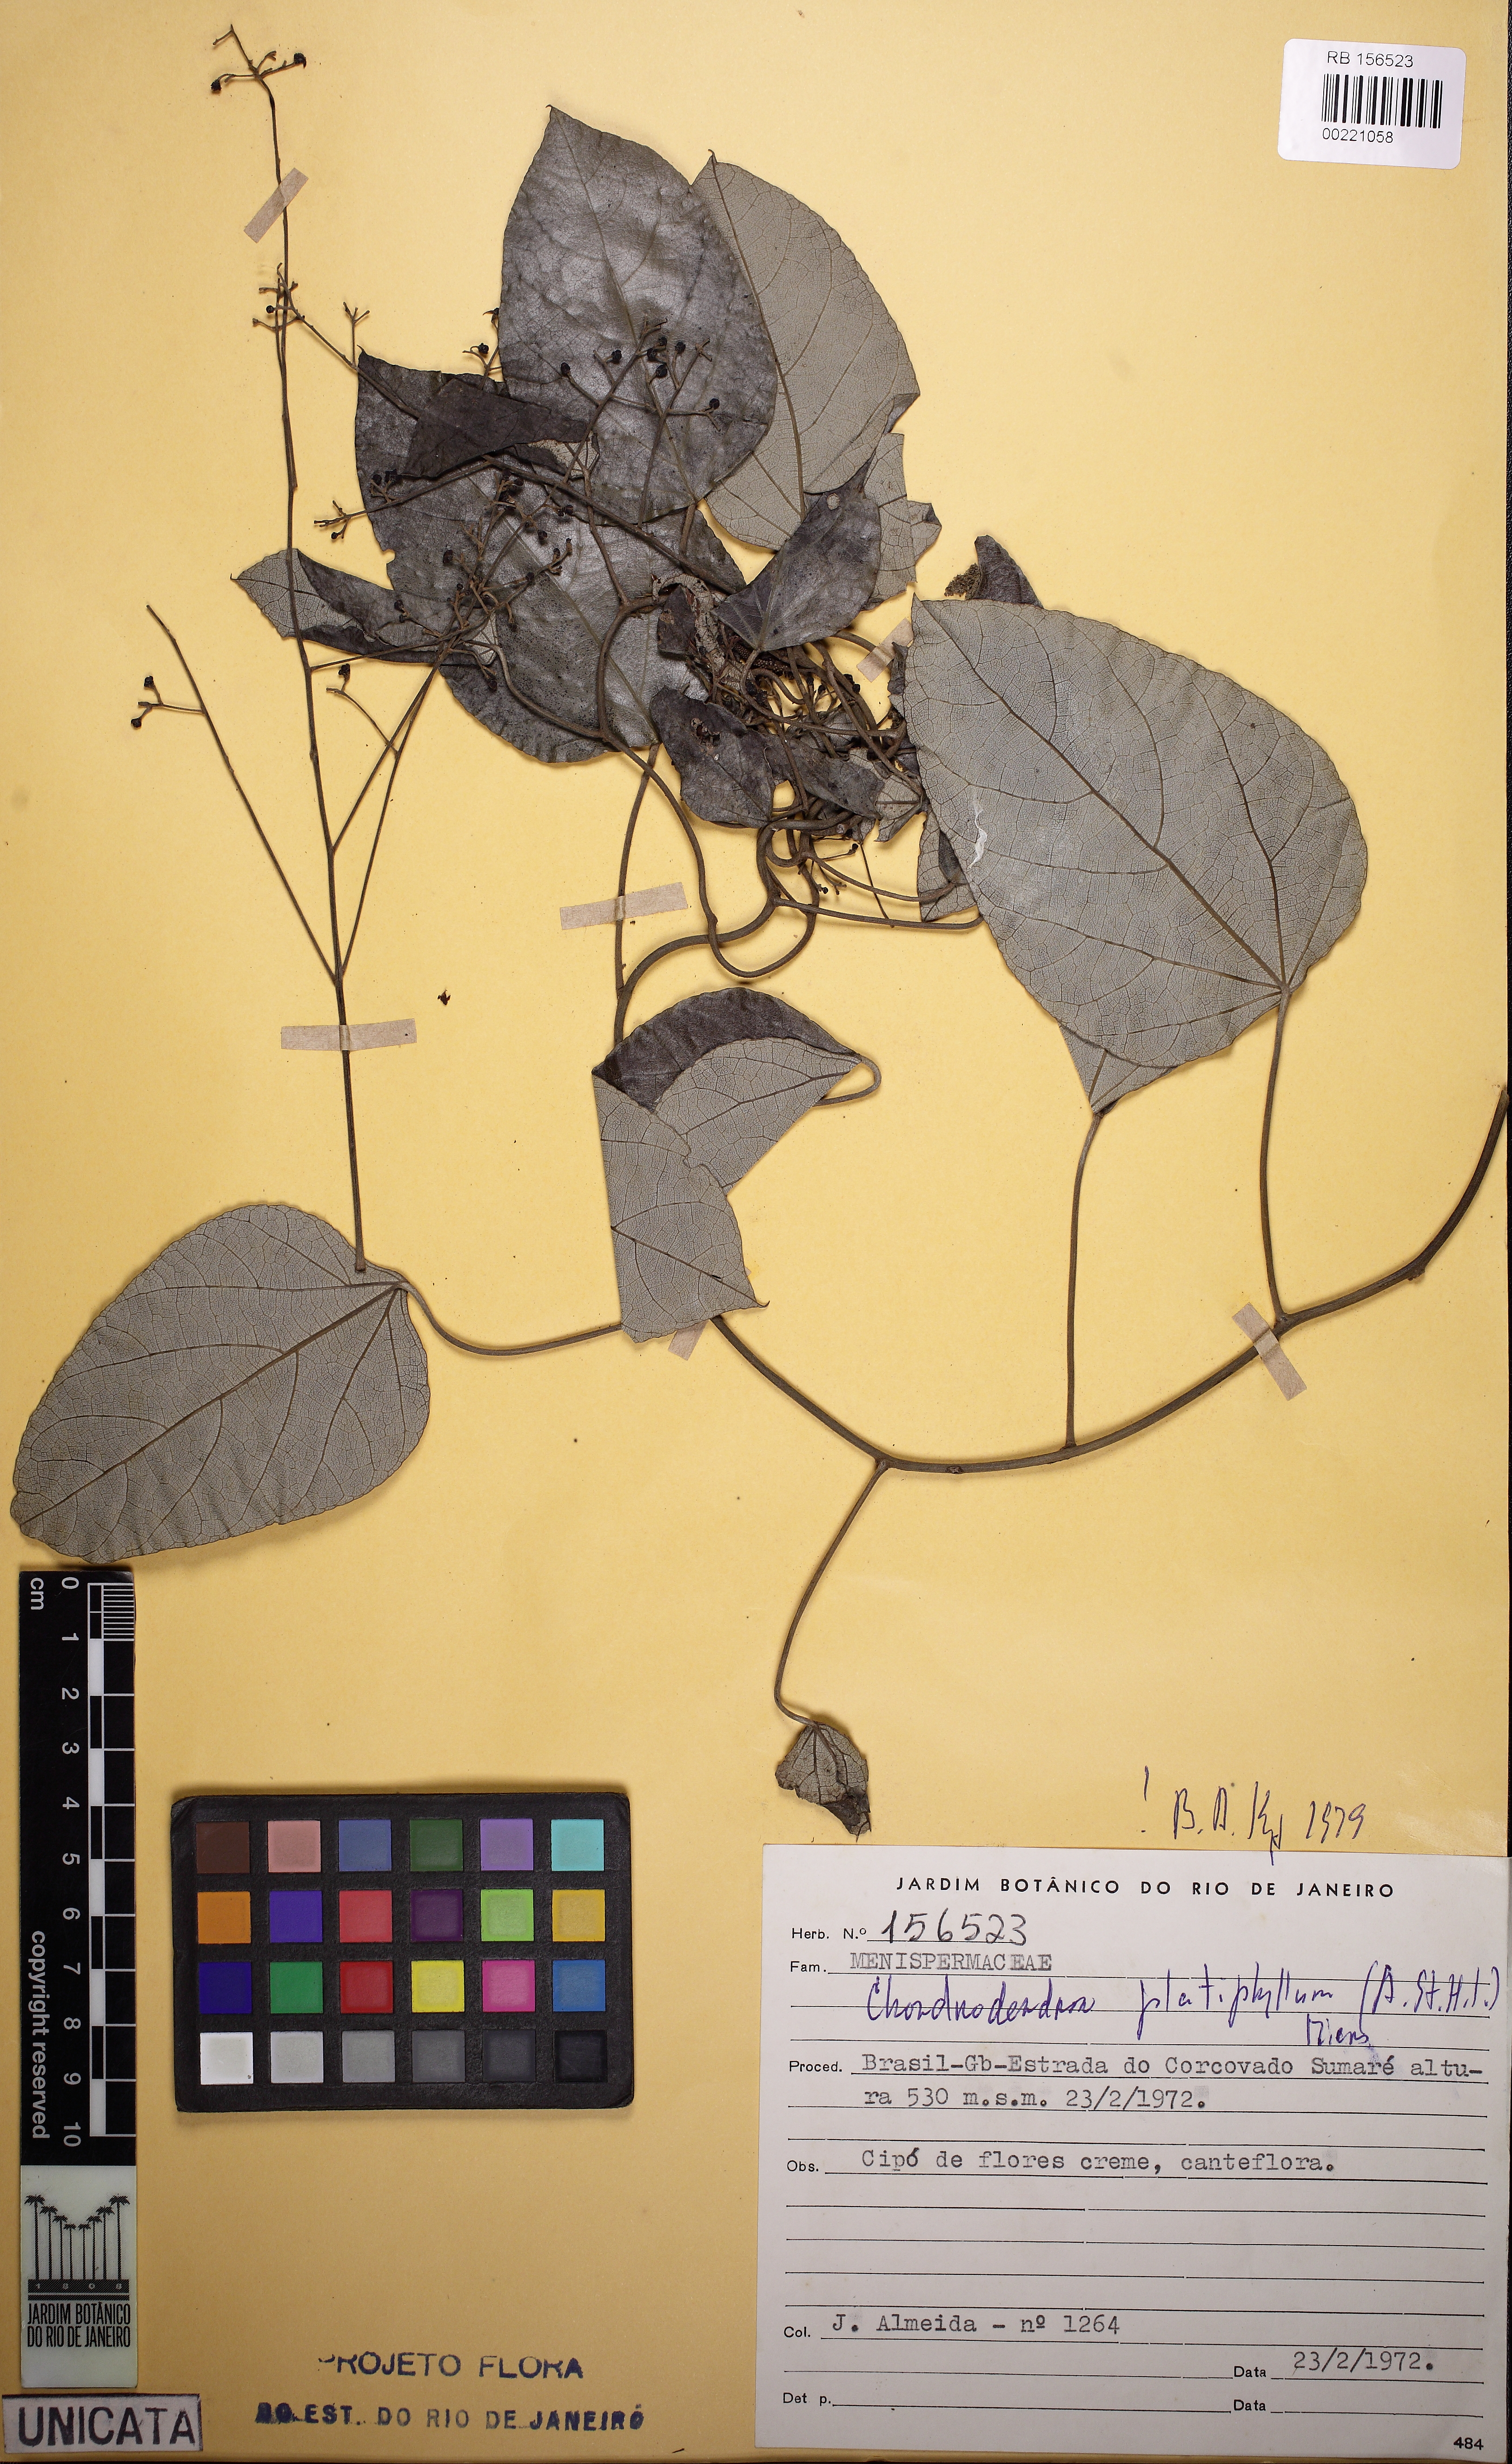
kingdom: Plantae
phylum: Tracheophyta
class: Magnoliopsida
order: Ranunculales
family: Menispermaceae
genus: Chondrodendron
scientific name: Chondrodendron platyphyllum
